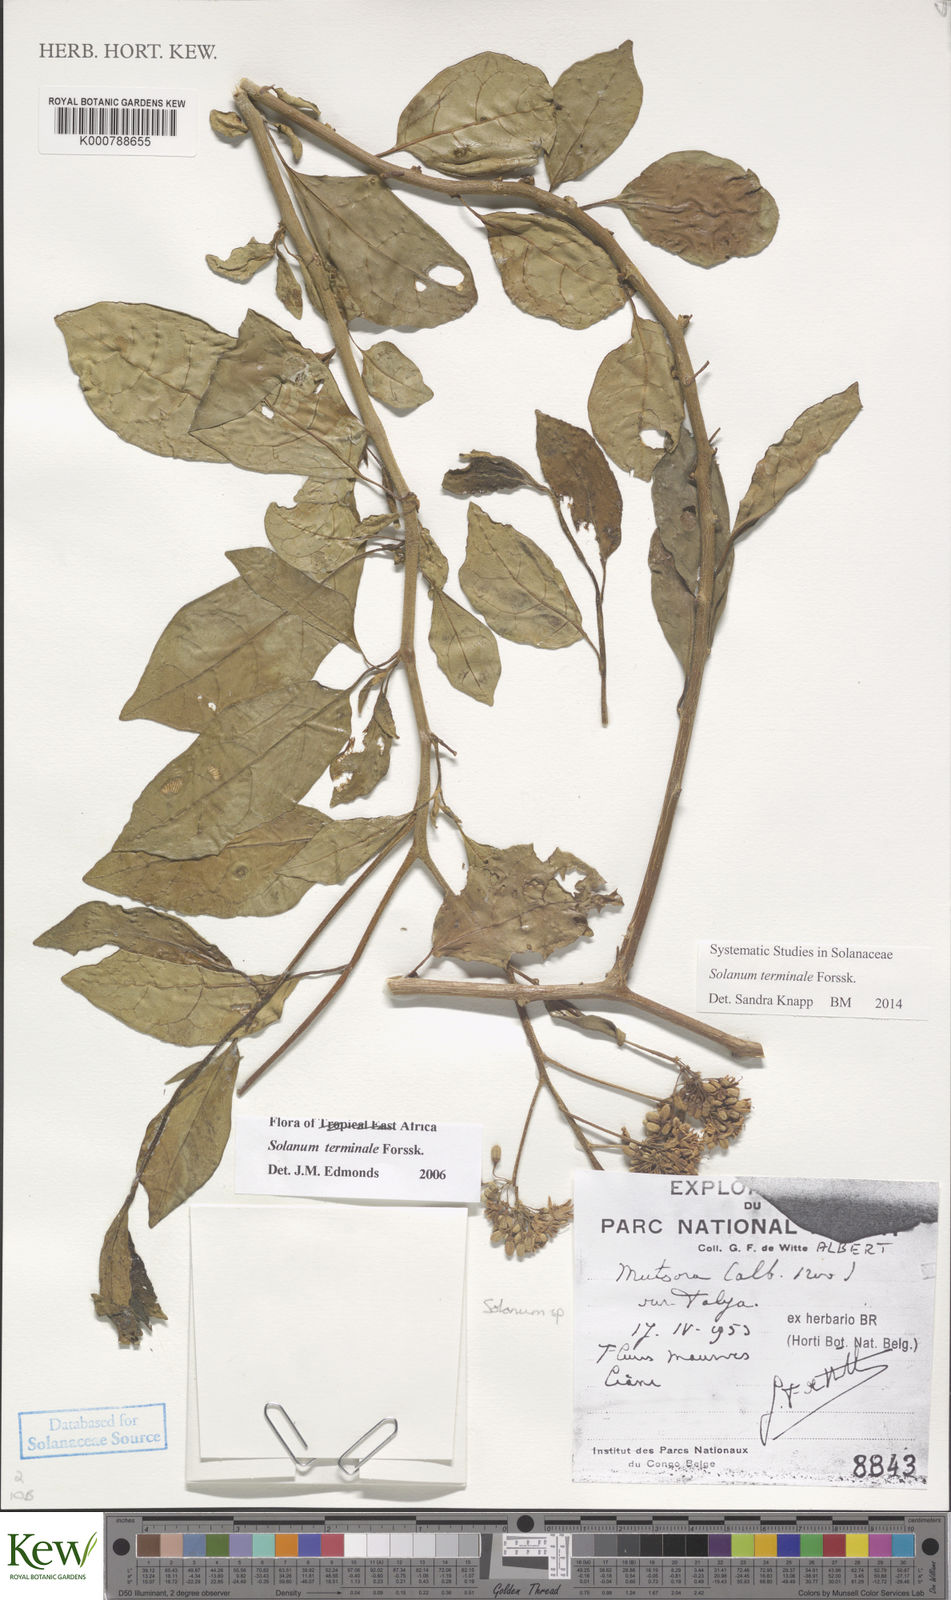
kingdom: Plantae
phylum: Tracheophyta
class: Magnoliopsida
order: Solanales
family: Solanaceae
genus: Solanum
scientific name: Solanum terminale
